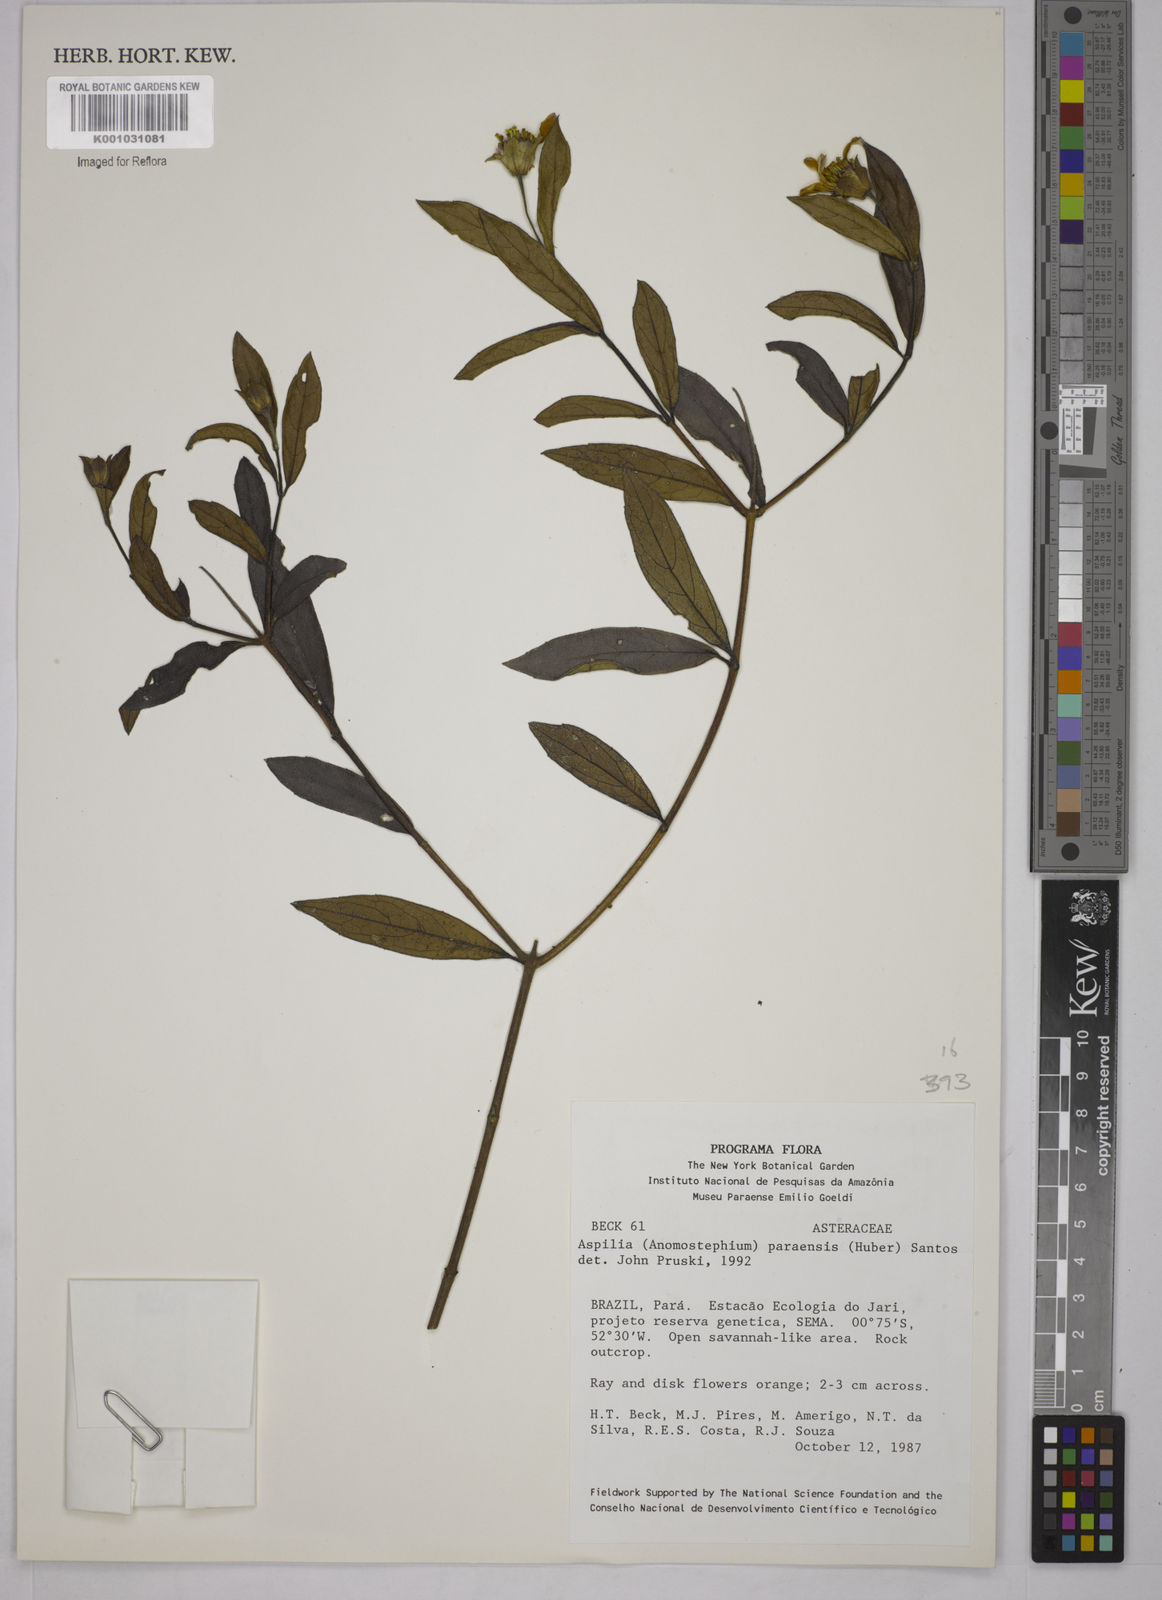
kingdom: Plantae
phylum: Tracheophyta
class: Magnoliopsida
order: Asterales
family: Asteraceae
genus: Aspilia
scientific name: Aspilia paraensis
